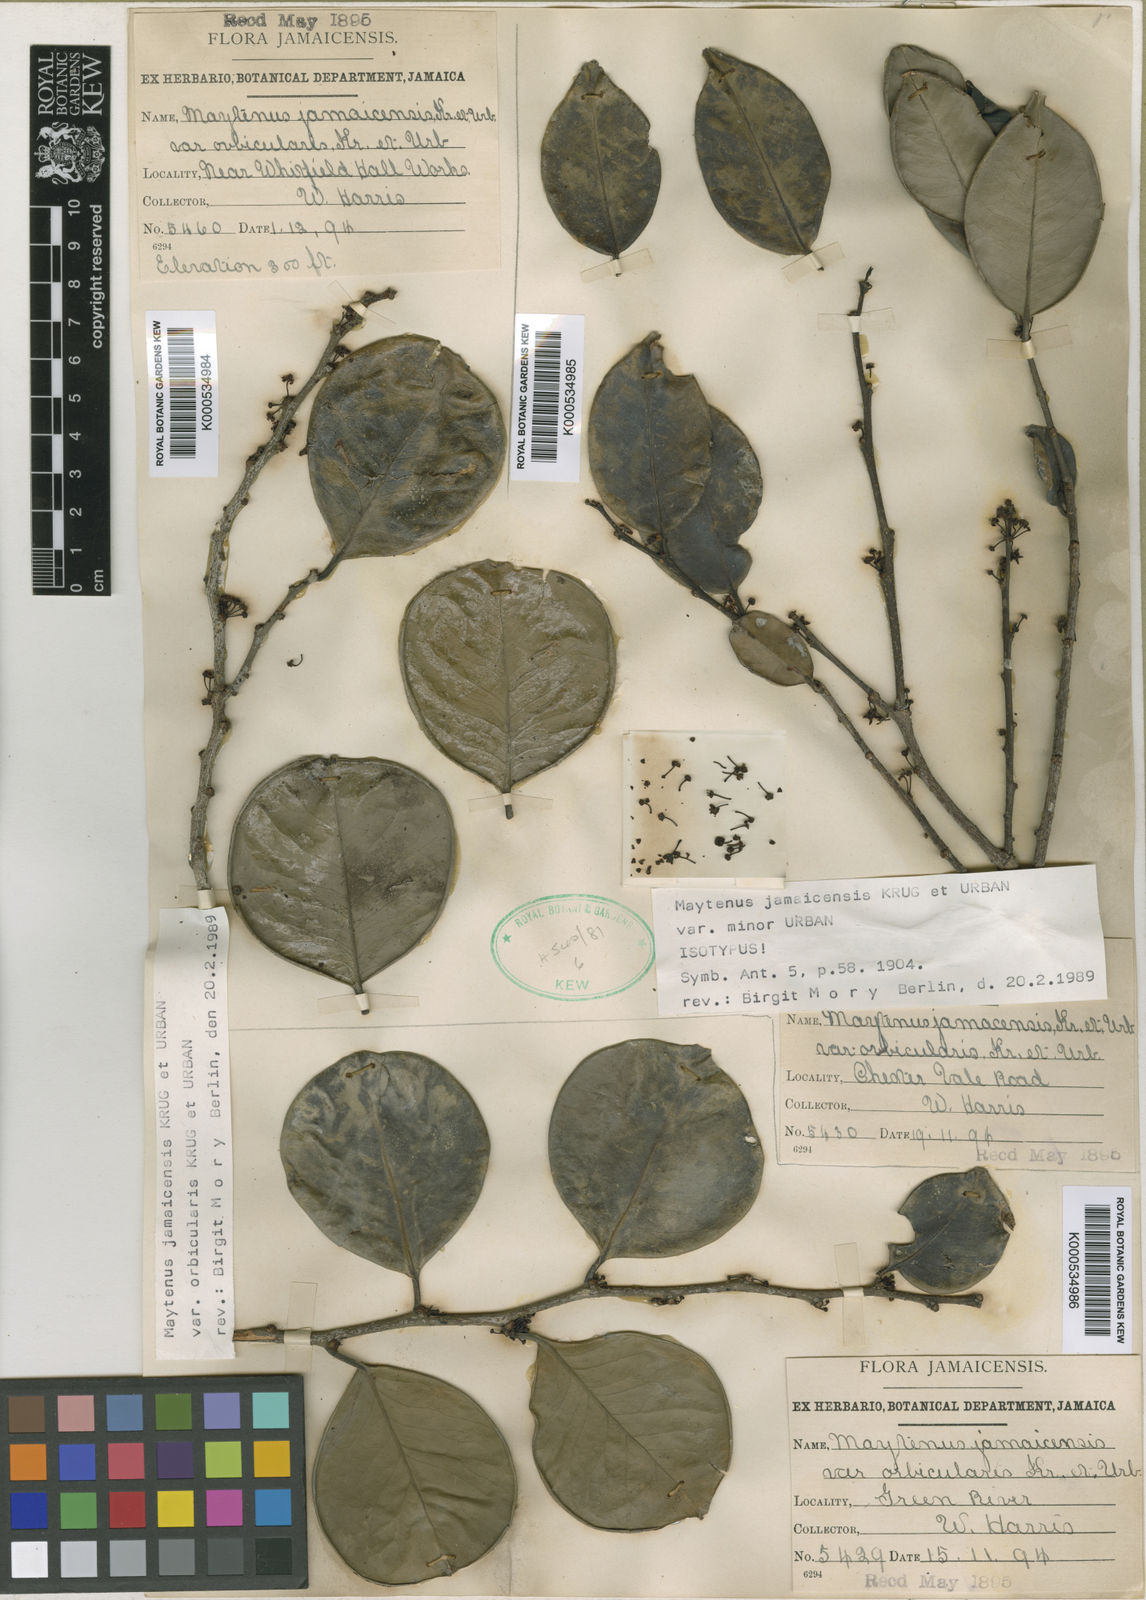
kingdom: Plantae
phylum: Tracheophyta
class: Magnoliopsida
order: Celastrales
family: Celastraceae
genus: Monteverdia
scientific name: Monteverdia jamaicensis
